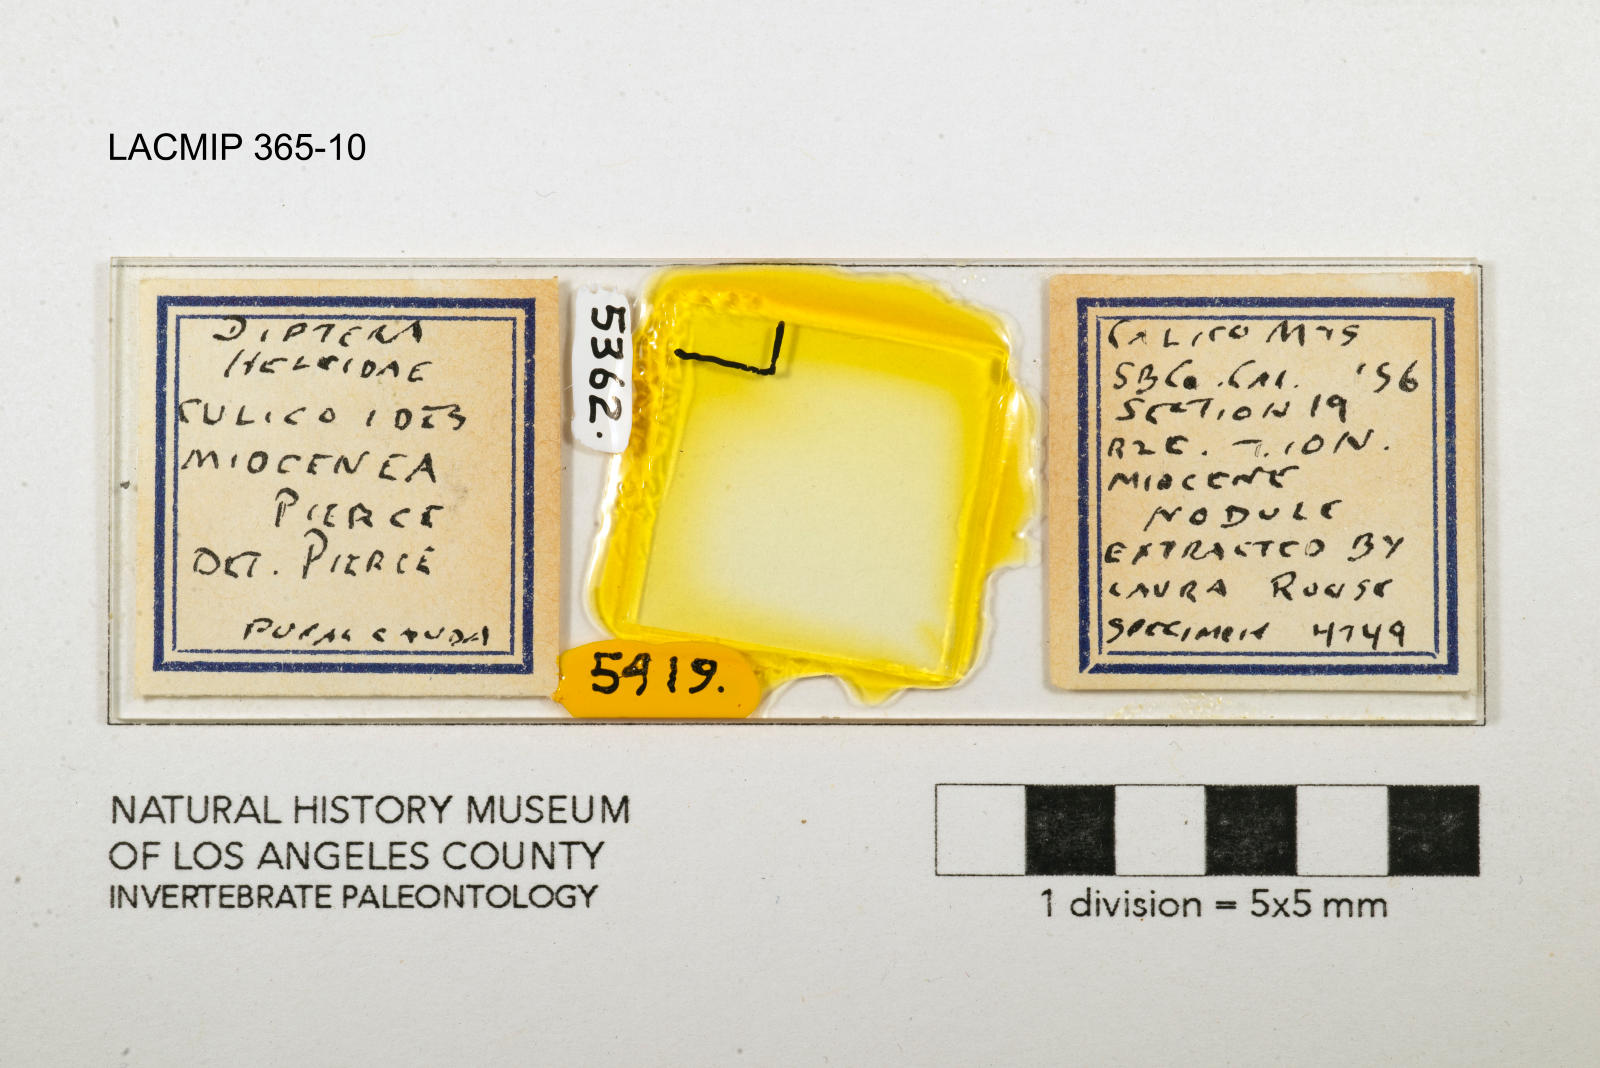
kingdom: Animalia
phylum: Arthropoda
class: Insecta
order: Diptera
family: Ceratopogonidae
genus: Culicoides
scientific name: Culicoides miocenicus
